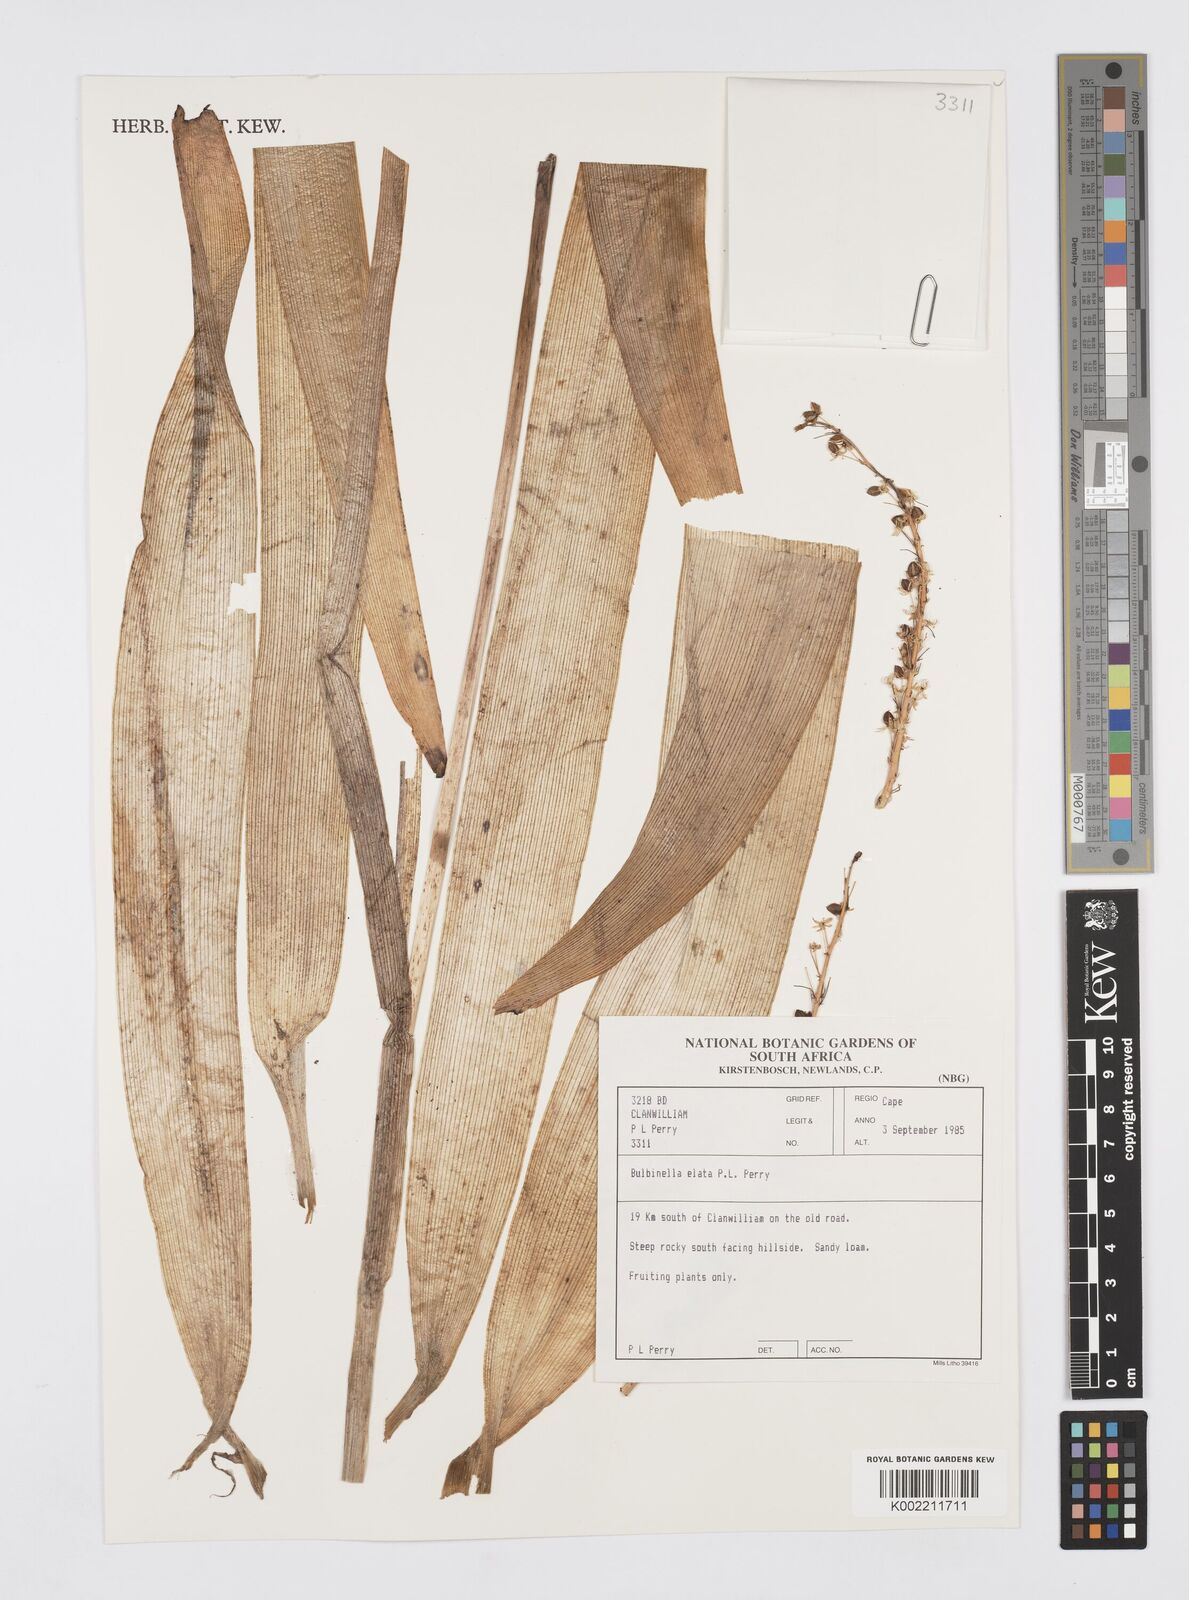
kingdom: Plantae
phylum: Tracheophyta
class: Liliopsida
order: Asparagales
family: Asphodelaceae
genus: Bulbinella
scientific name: Bulbinella elata
